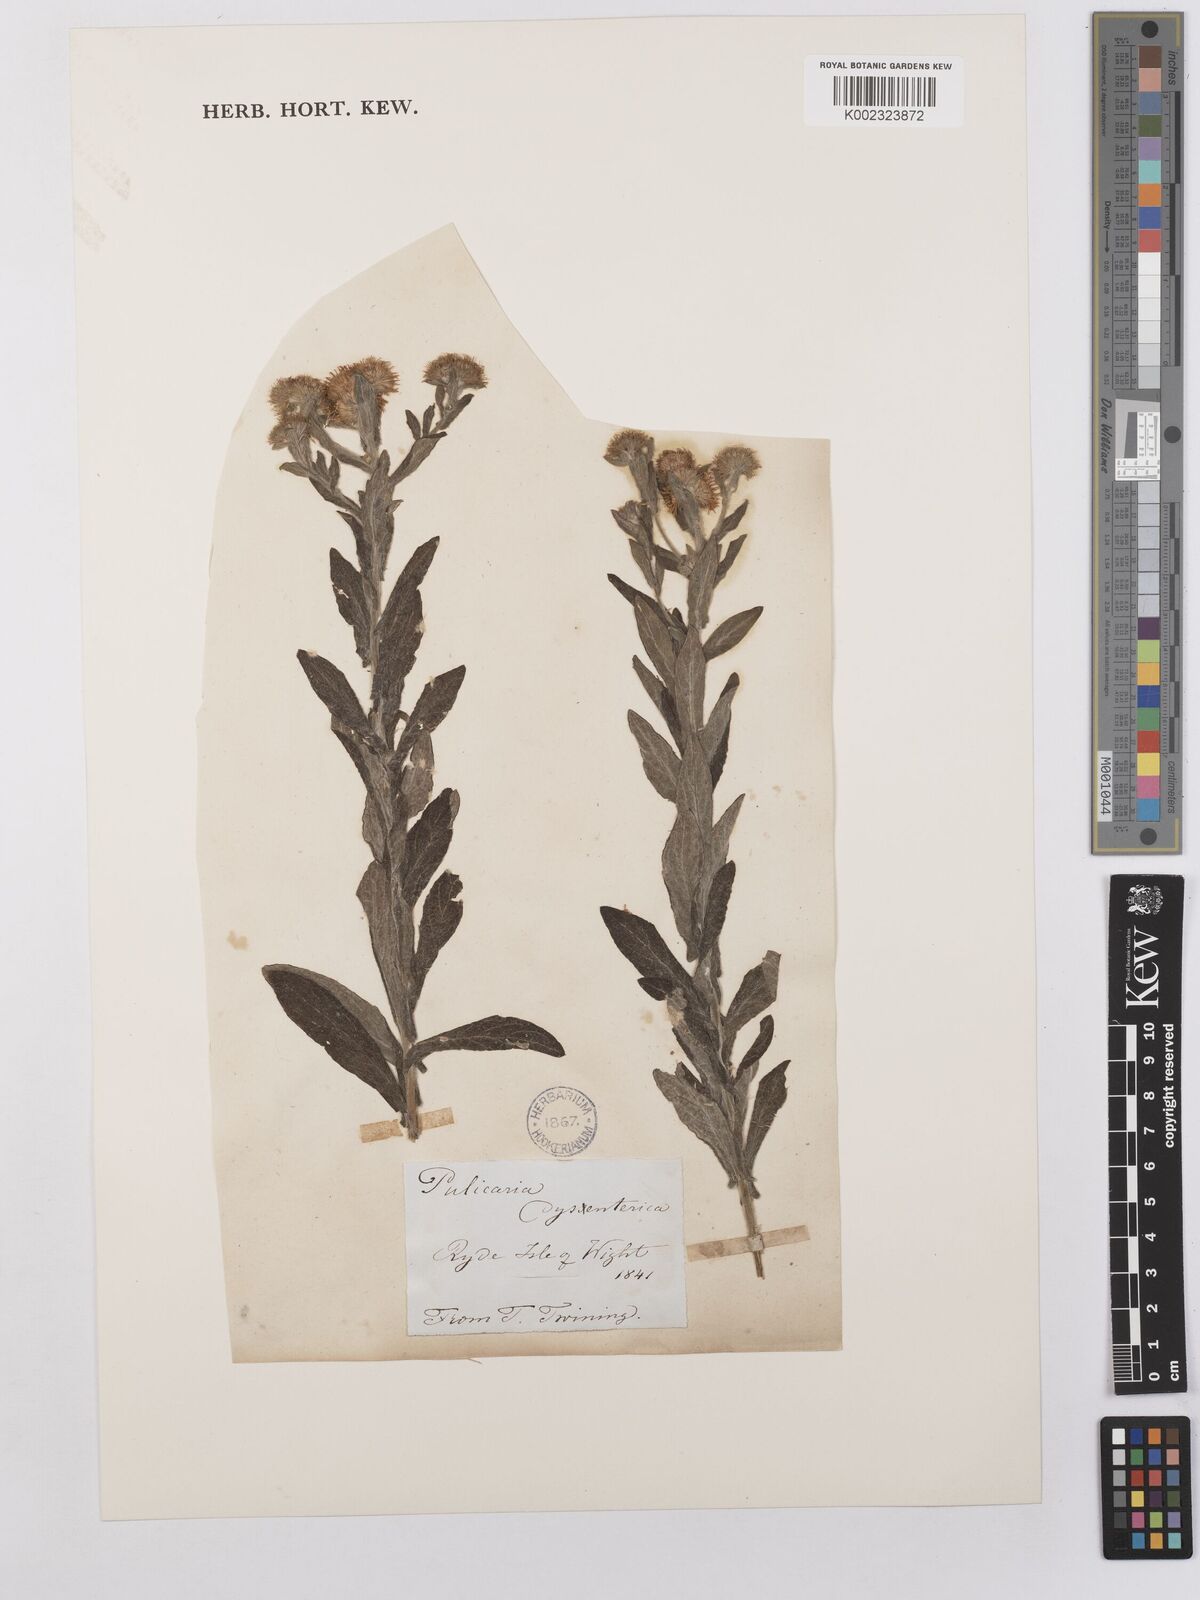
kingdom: Plantae
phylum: Tracheophyta
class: Magnoliopsida
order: Asterales
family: Asteraceae
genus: Pulicaria
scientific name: Pulicaria dysenterica
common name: Common fleabane
